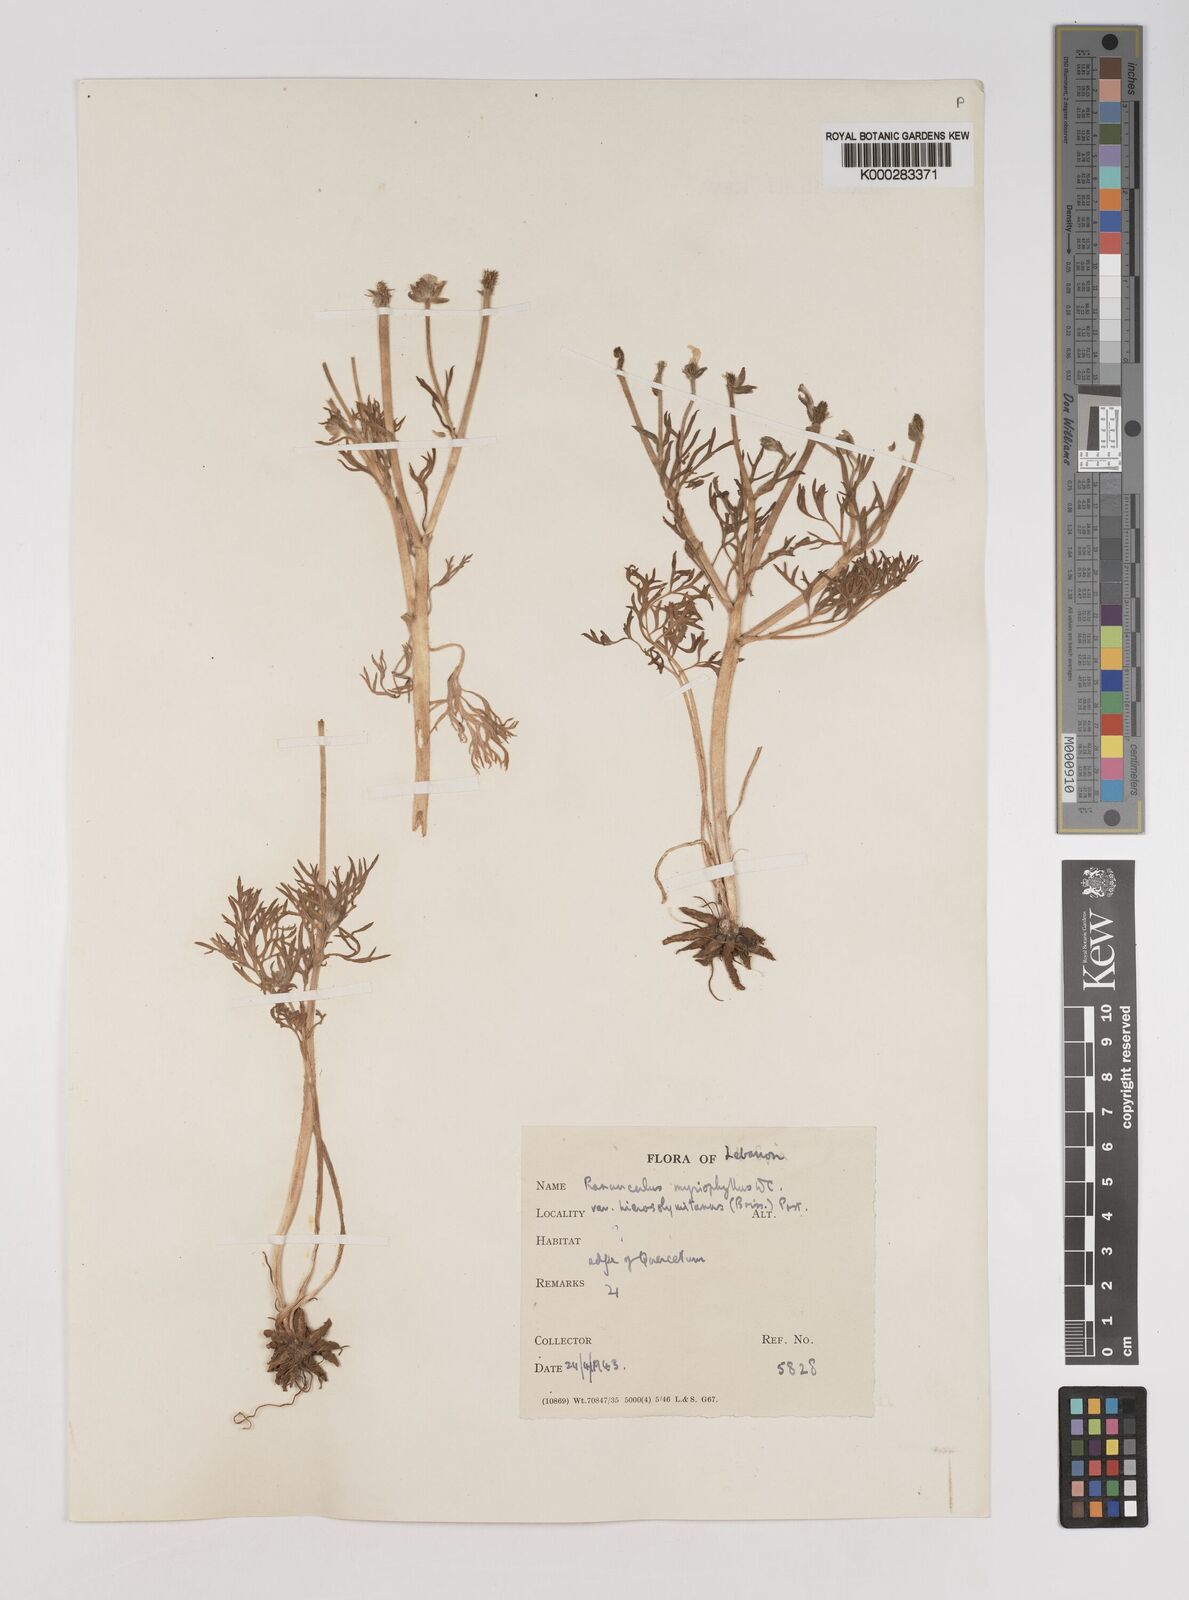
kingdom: Plantae
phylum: Tracheophyta
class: Magnoliopsida
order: Ranunculales
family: Ranunculaceae
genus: Ranunculus
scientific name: Ranunculus millefolius
